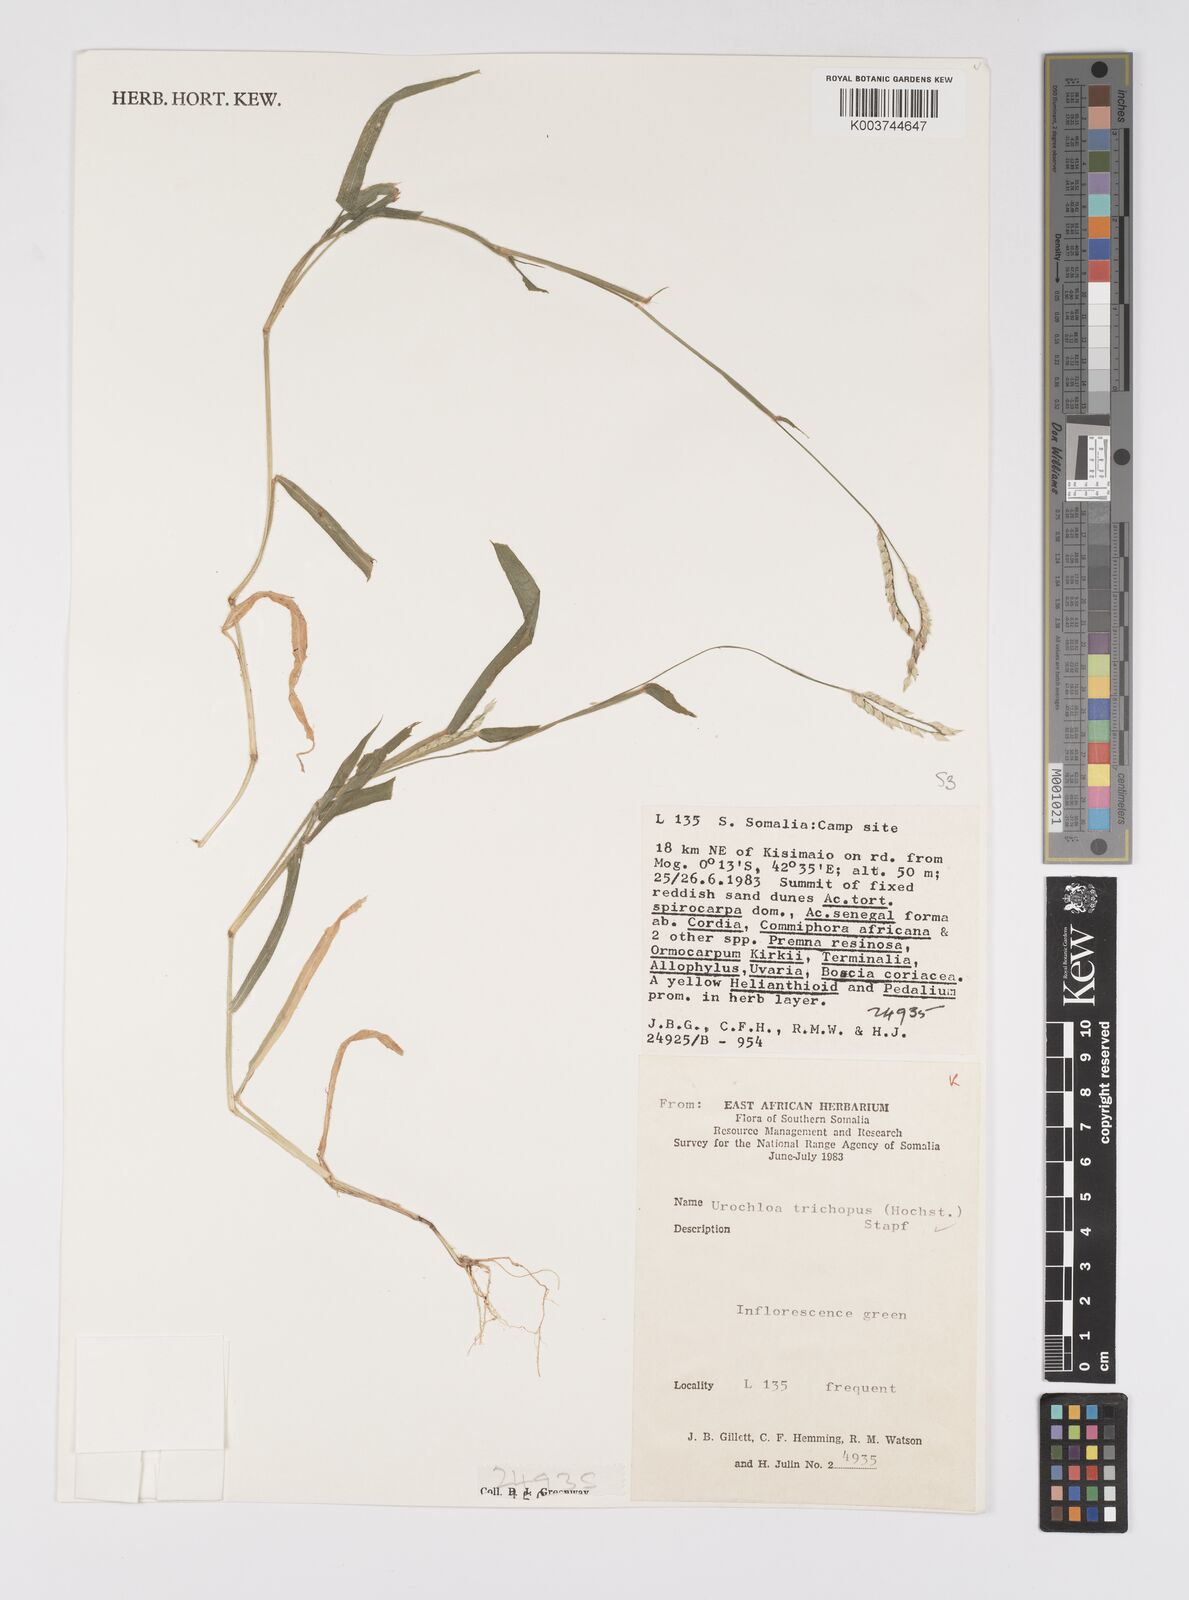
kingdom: Plantae
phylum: Tracheophyta
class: Liliopsida
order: Poales
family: Poaceae
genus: Urochloa
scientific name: Urochloa trichopus
